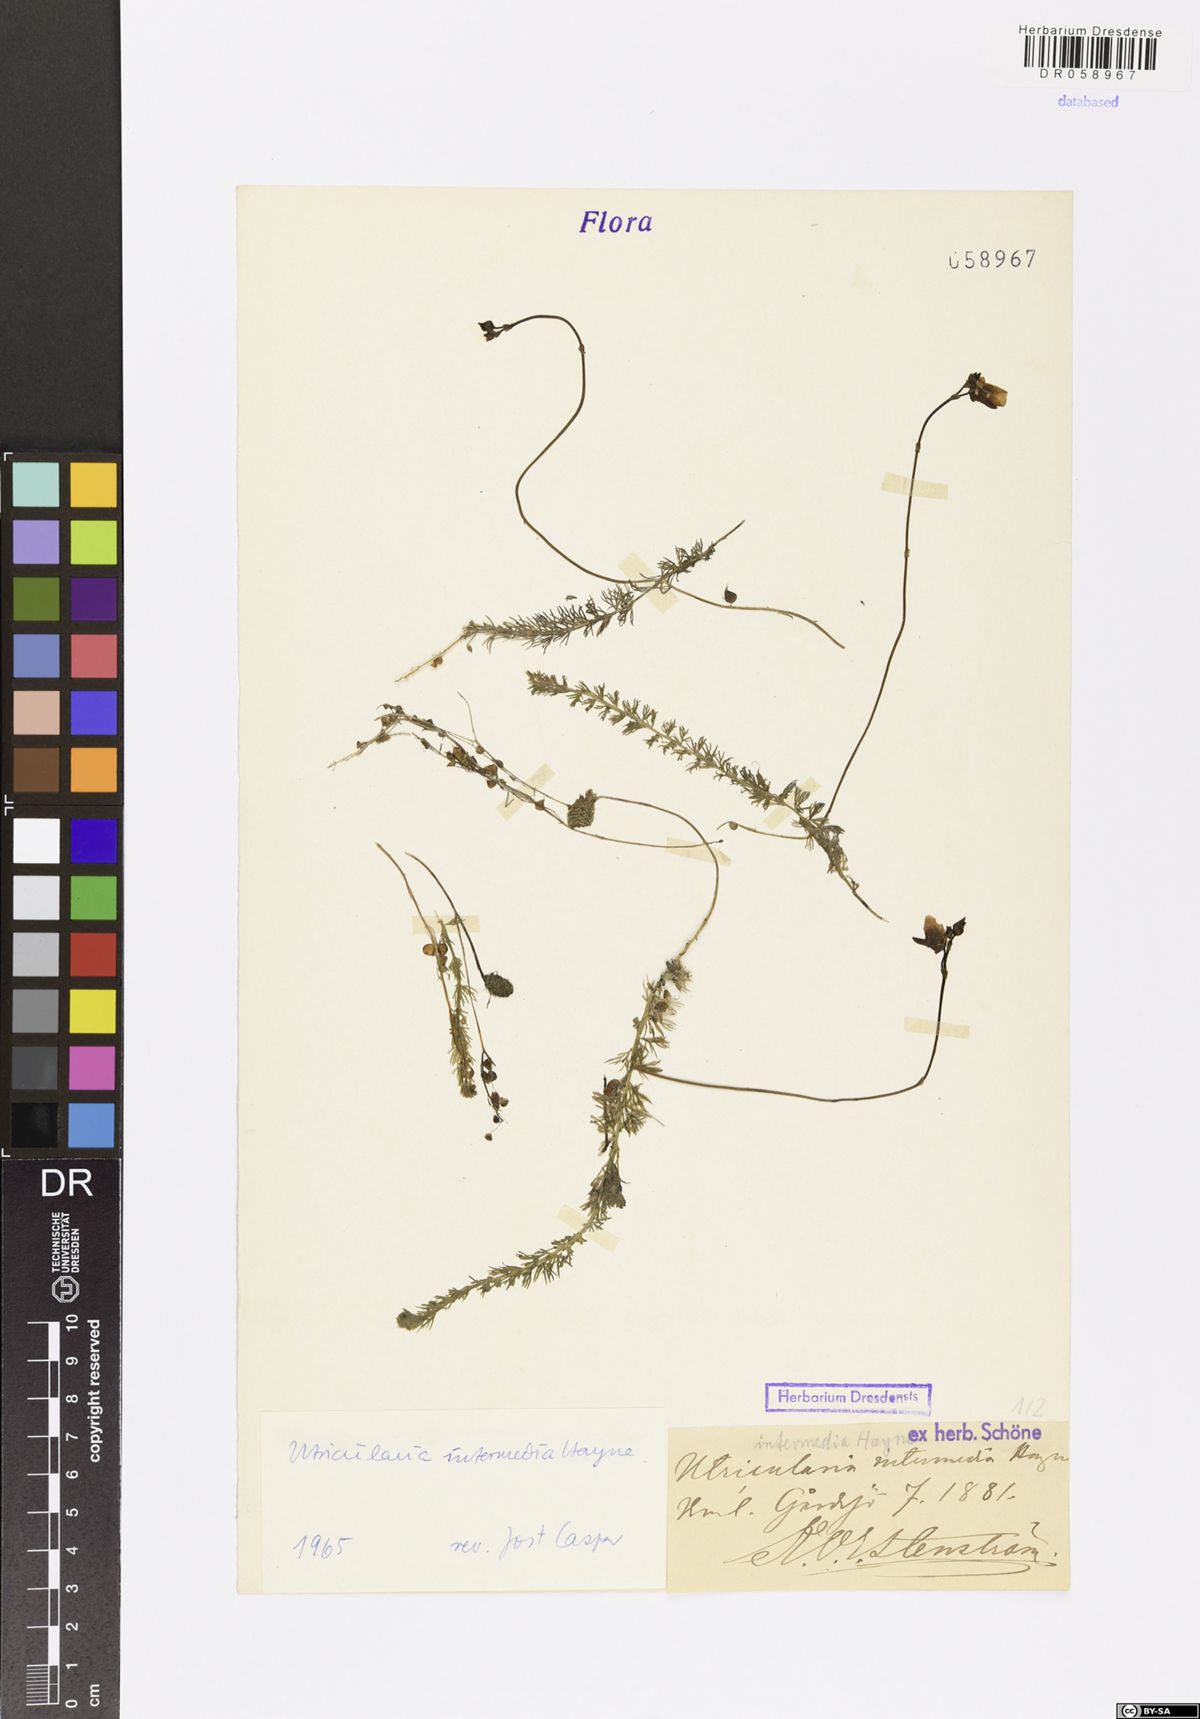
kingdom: Plantae
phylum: Tracheophyta
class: Magnoliopsida
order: Lamiales
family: Lentibulariaceae
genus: Utricularia
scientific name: Utricularia intermedia
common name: Intermediate bladderwort
